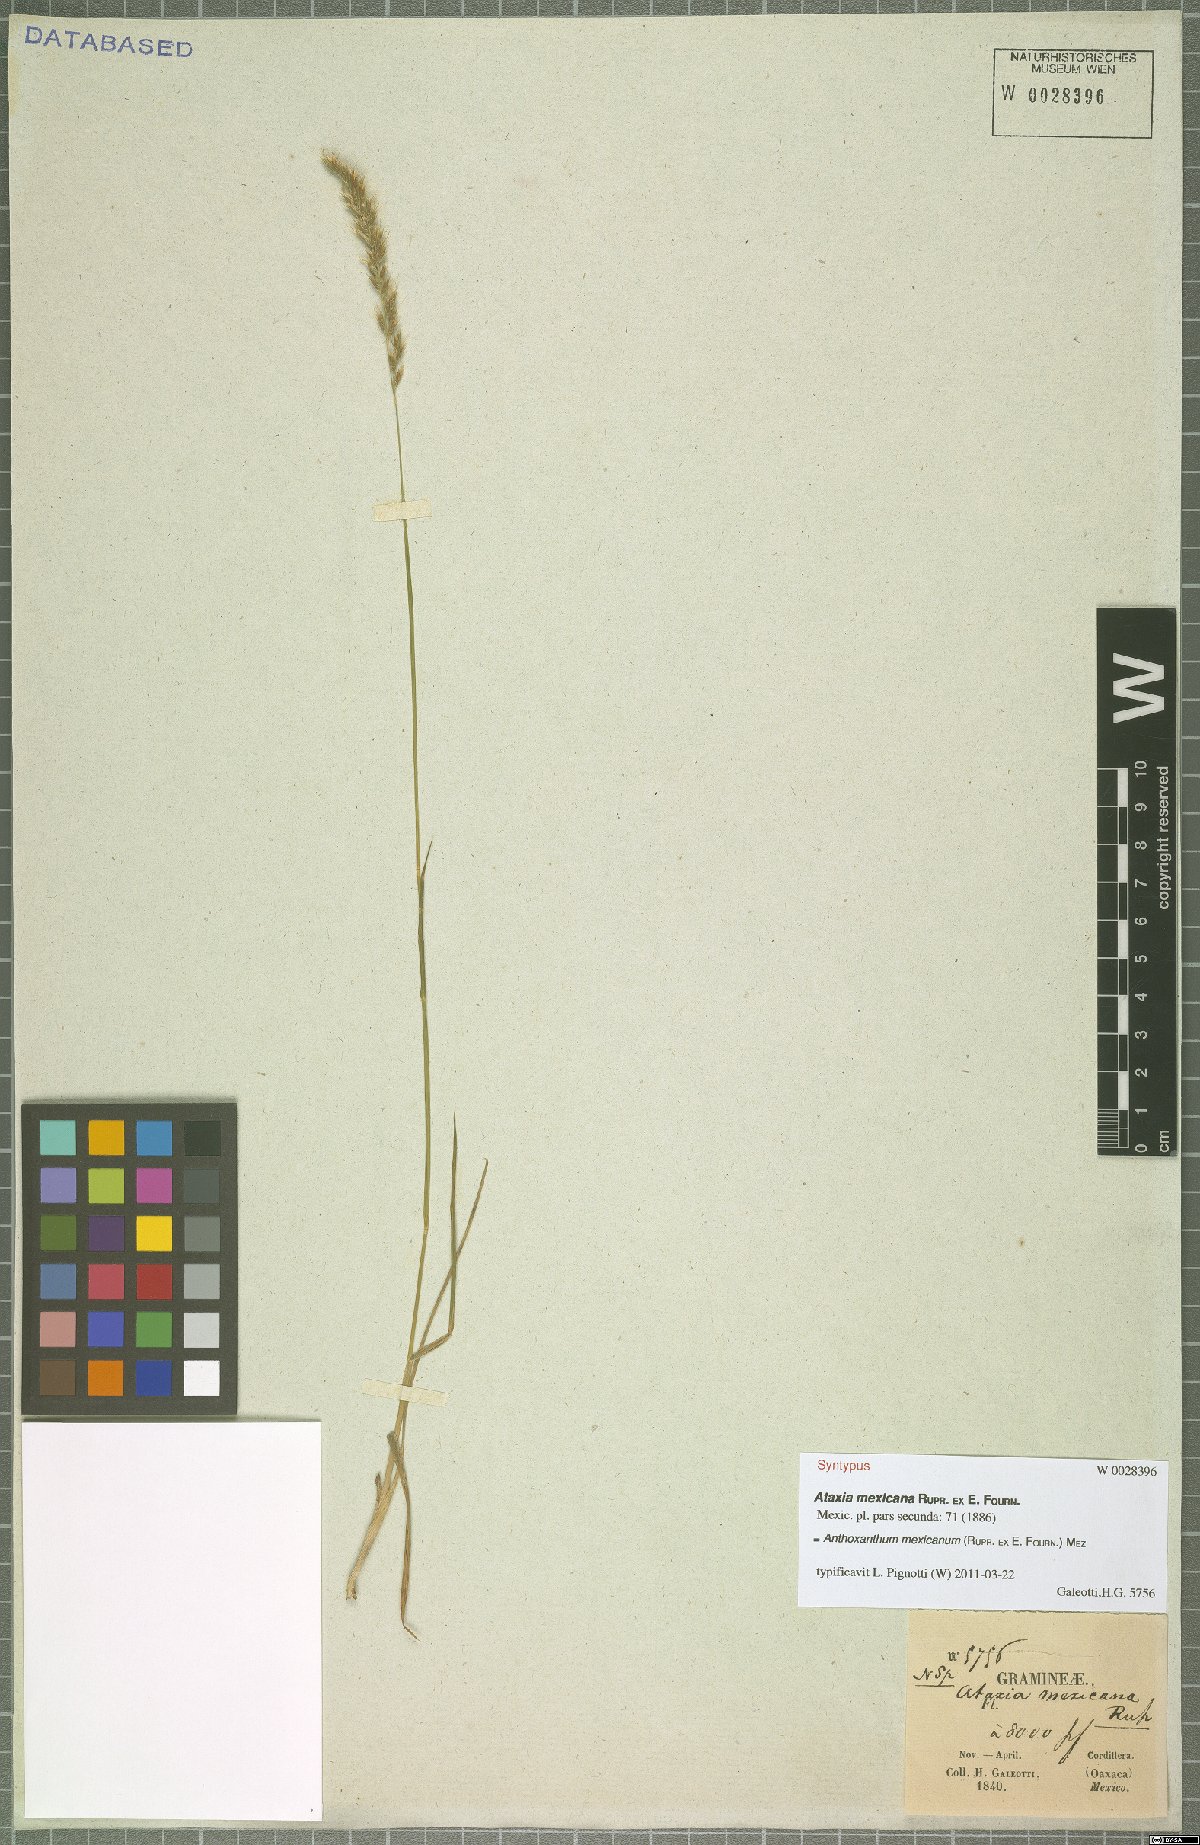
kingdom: Plantae
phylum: Tracheophyta
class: Liliopsida
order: Poales
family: Poaceae
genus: Anthoxanthum
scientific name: Anthoxanthum mexicanum
